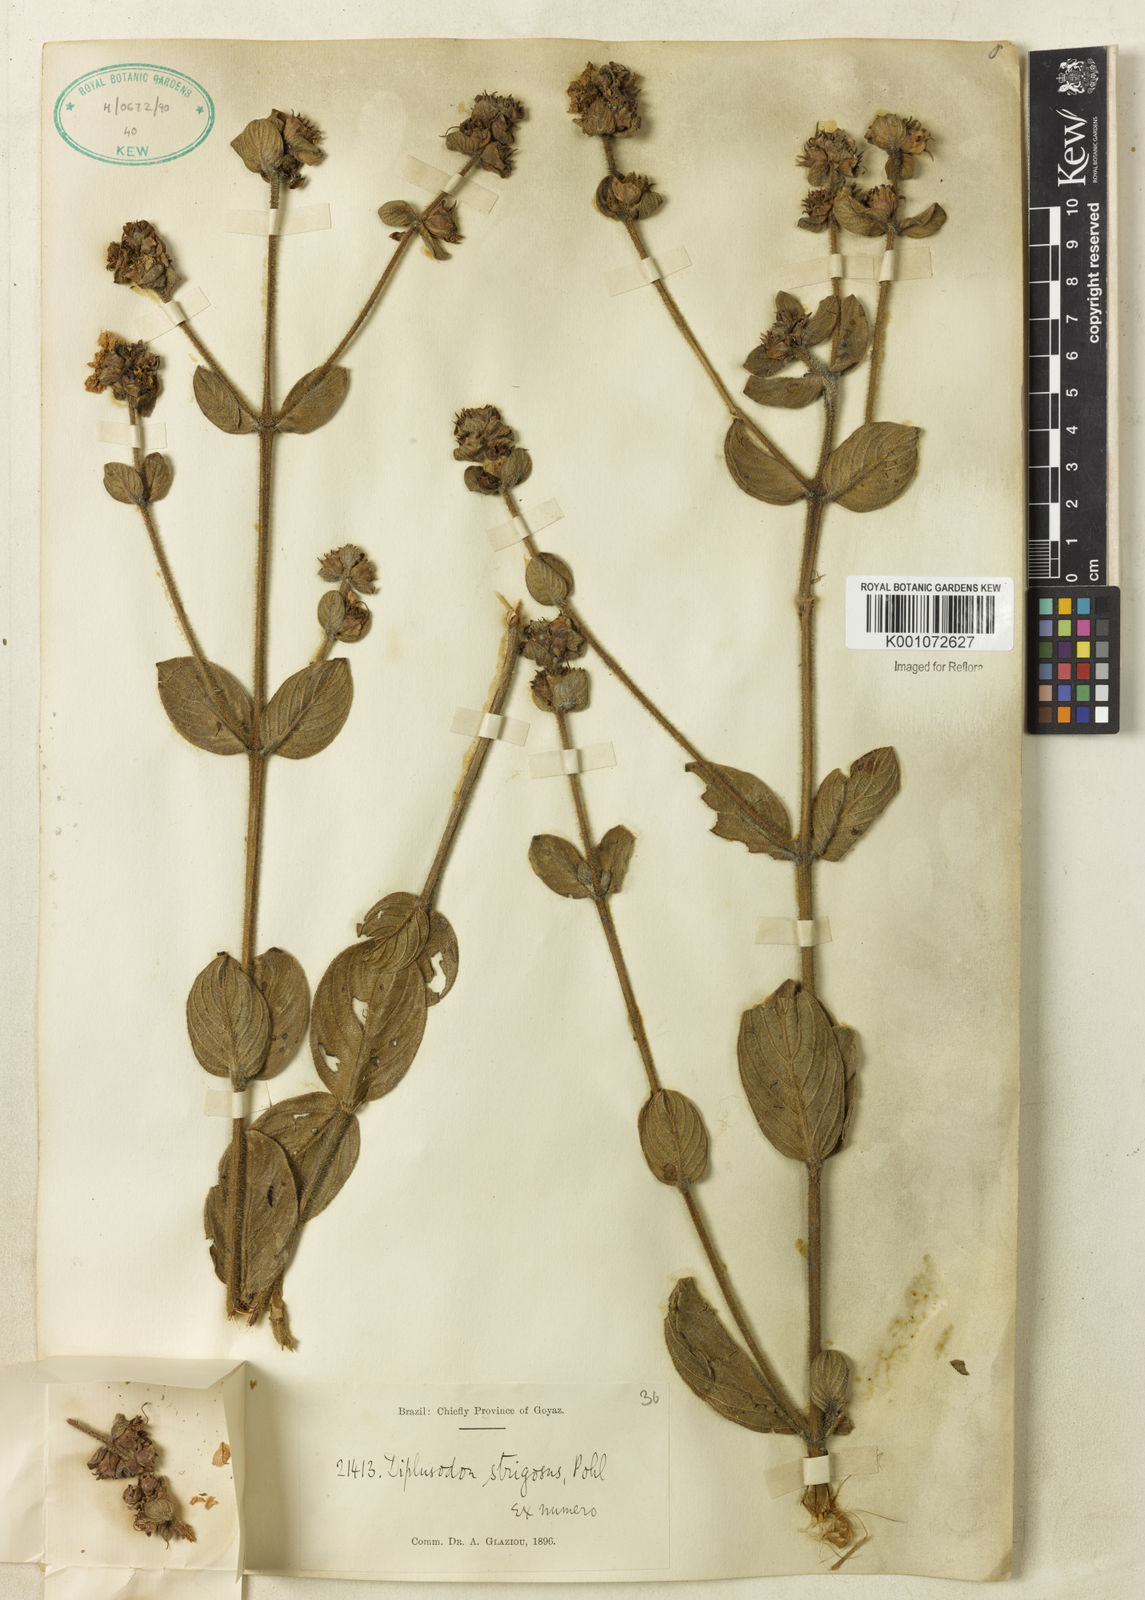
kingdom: Plantae
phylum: Tracheophyta
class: Magnoliopsida
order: Myrtales
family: Lythraceae
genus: Diplusodon
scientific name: Diplusodon strigosus
